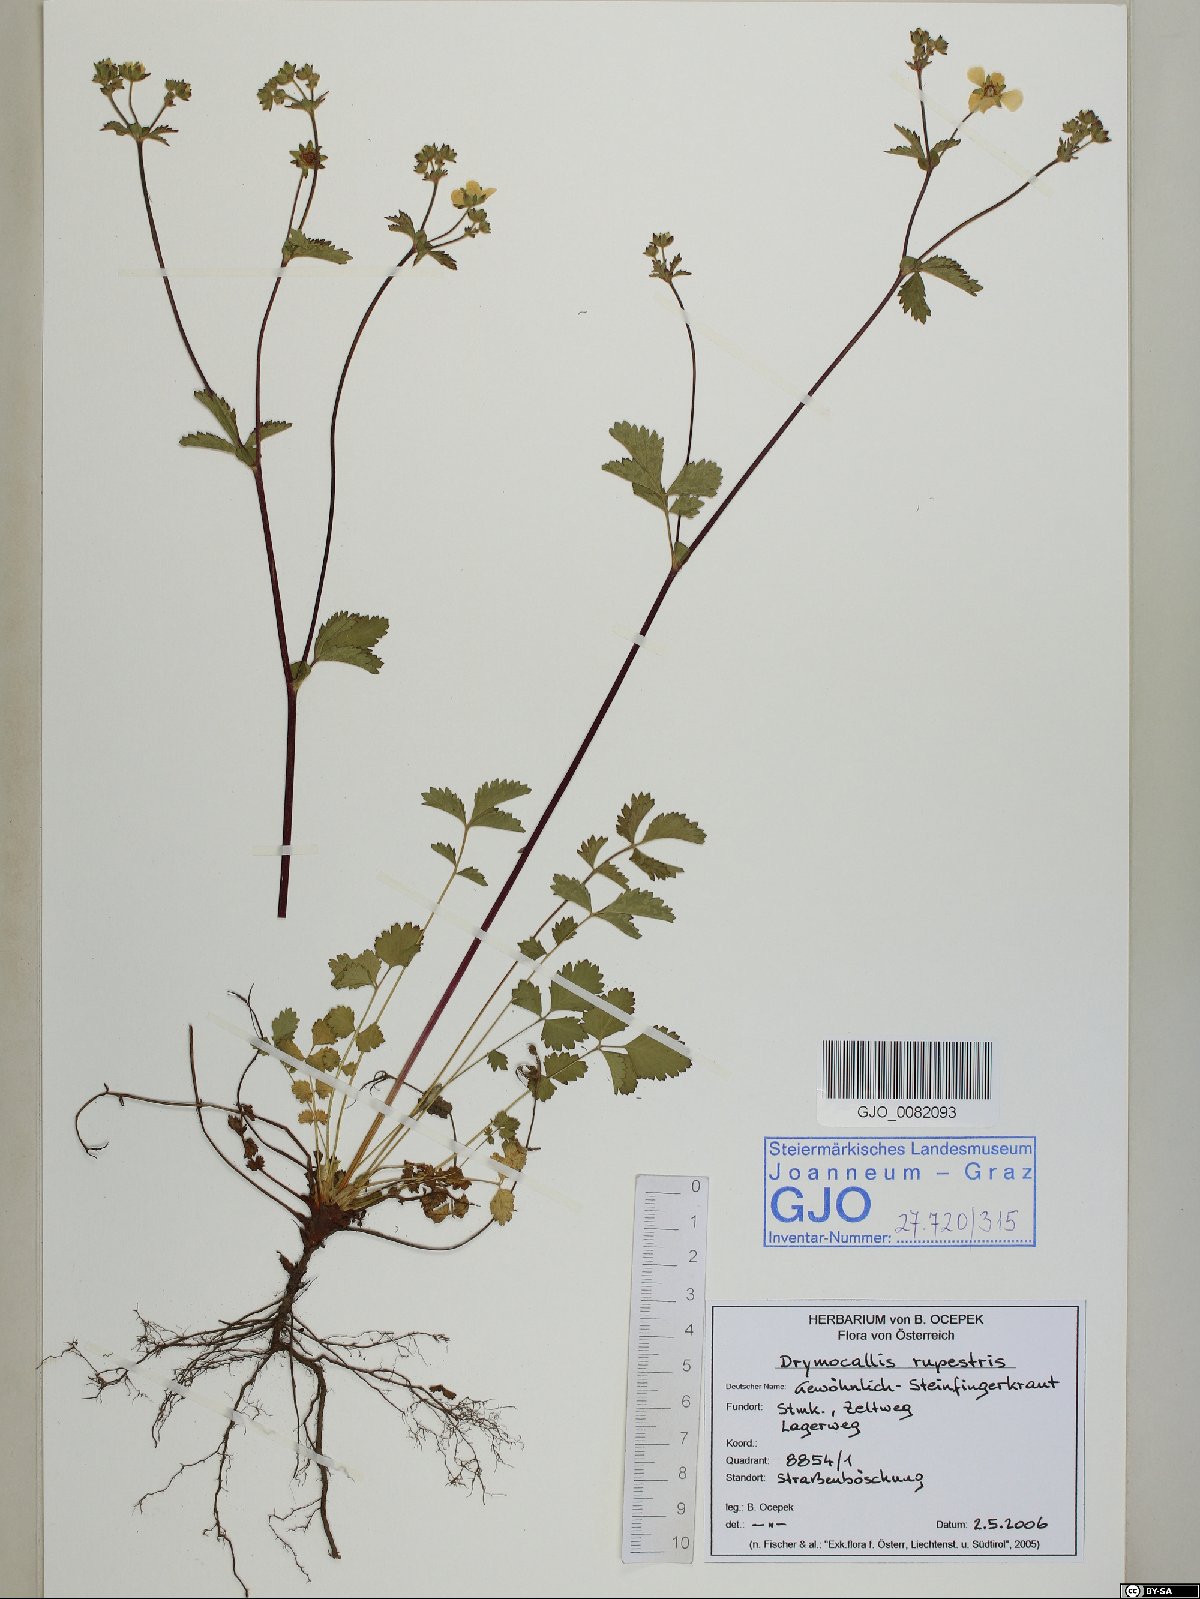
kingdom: Plantae
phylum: Tracheophyta
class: Magnoliopsida
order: Rosales
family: Rosaceae
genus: Drymocallis
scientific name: Drymocallis
